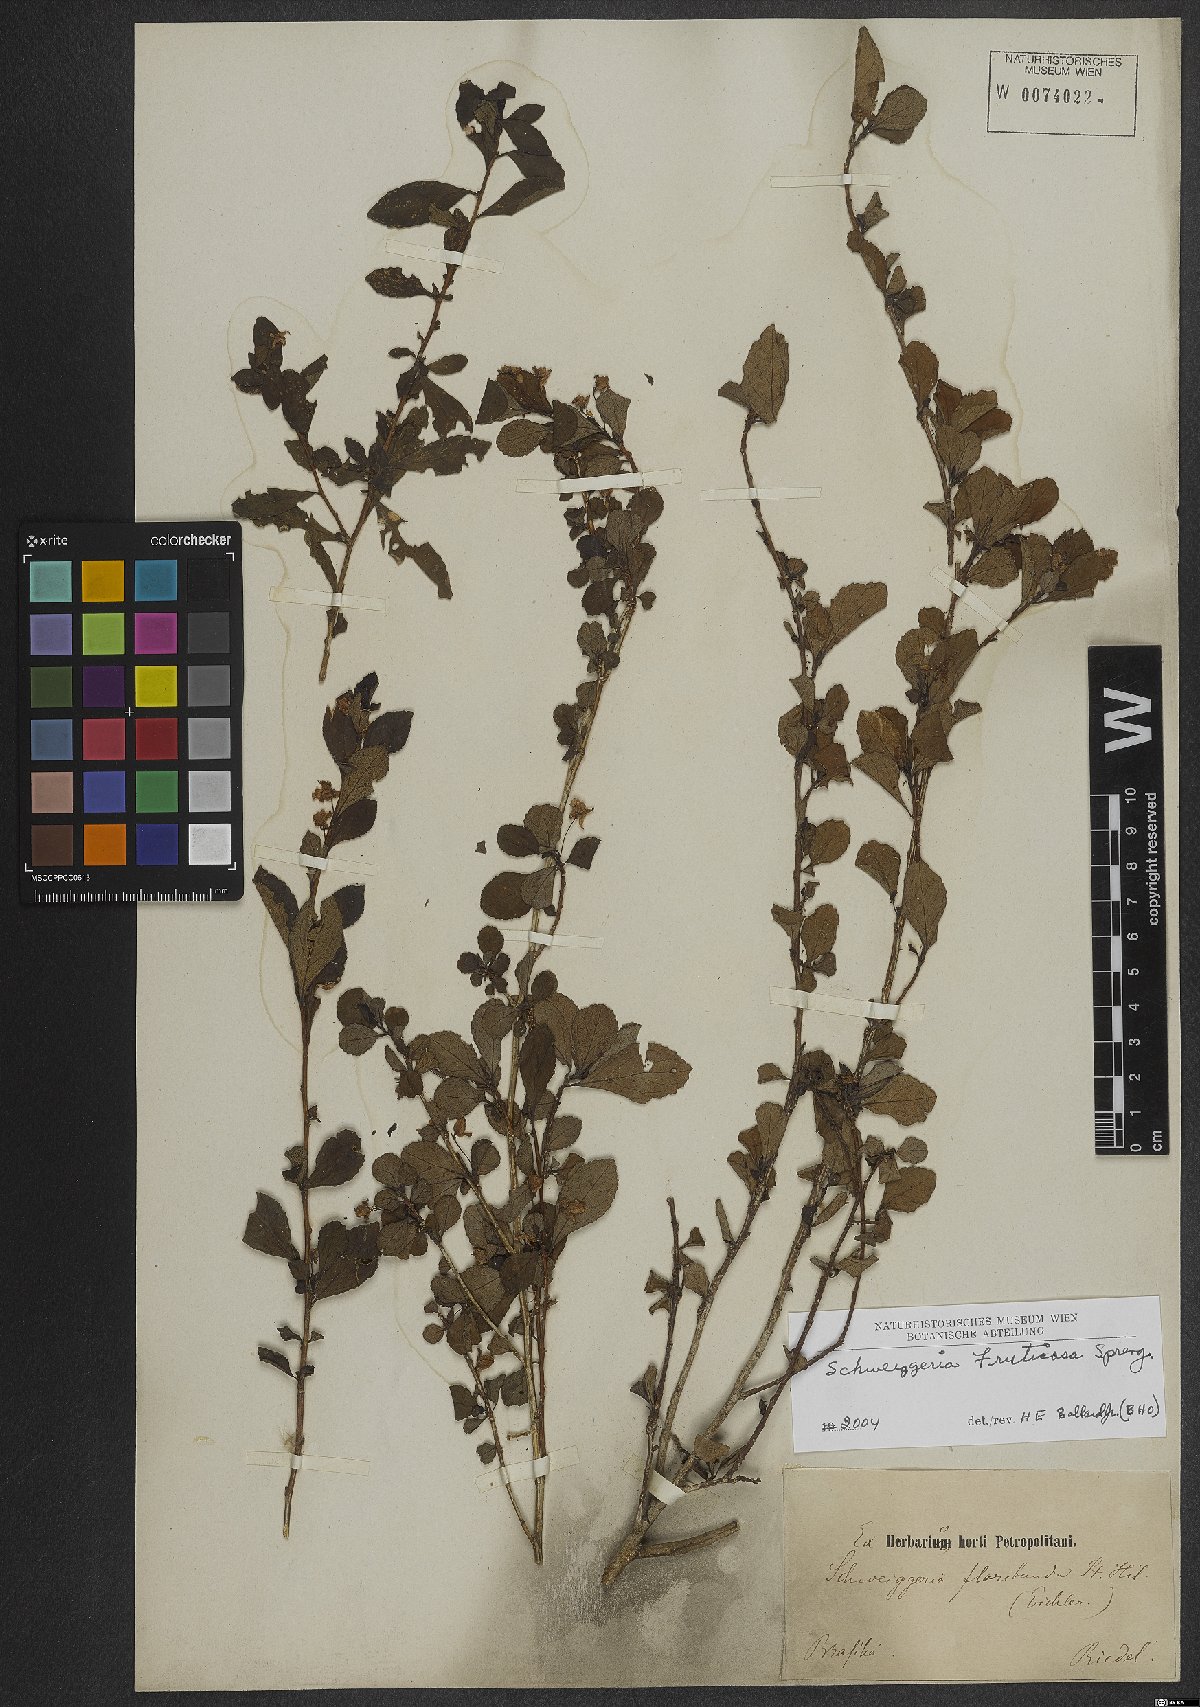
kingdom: Plantae
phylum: Tracheophyta
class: Magnoliopsida
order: Malpighiales
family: Violaceae
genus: Schweiggeria
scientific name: Schweiggeria fruticosa
